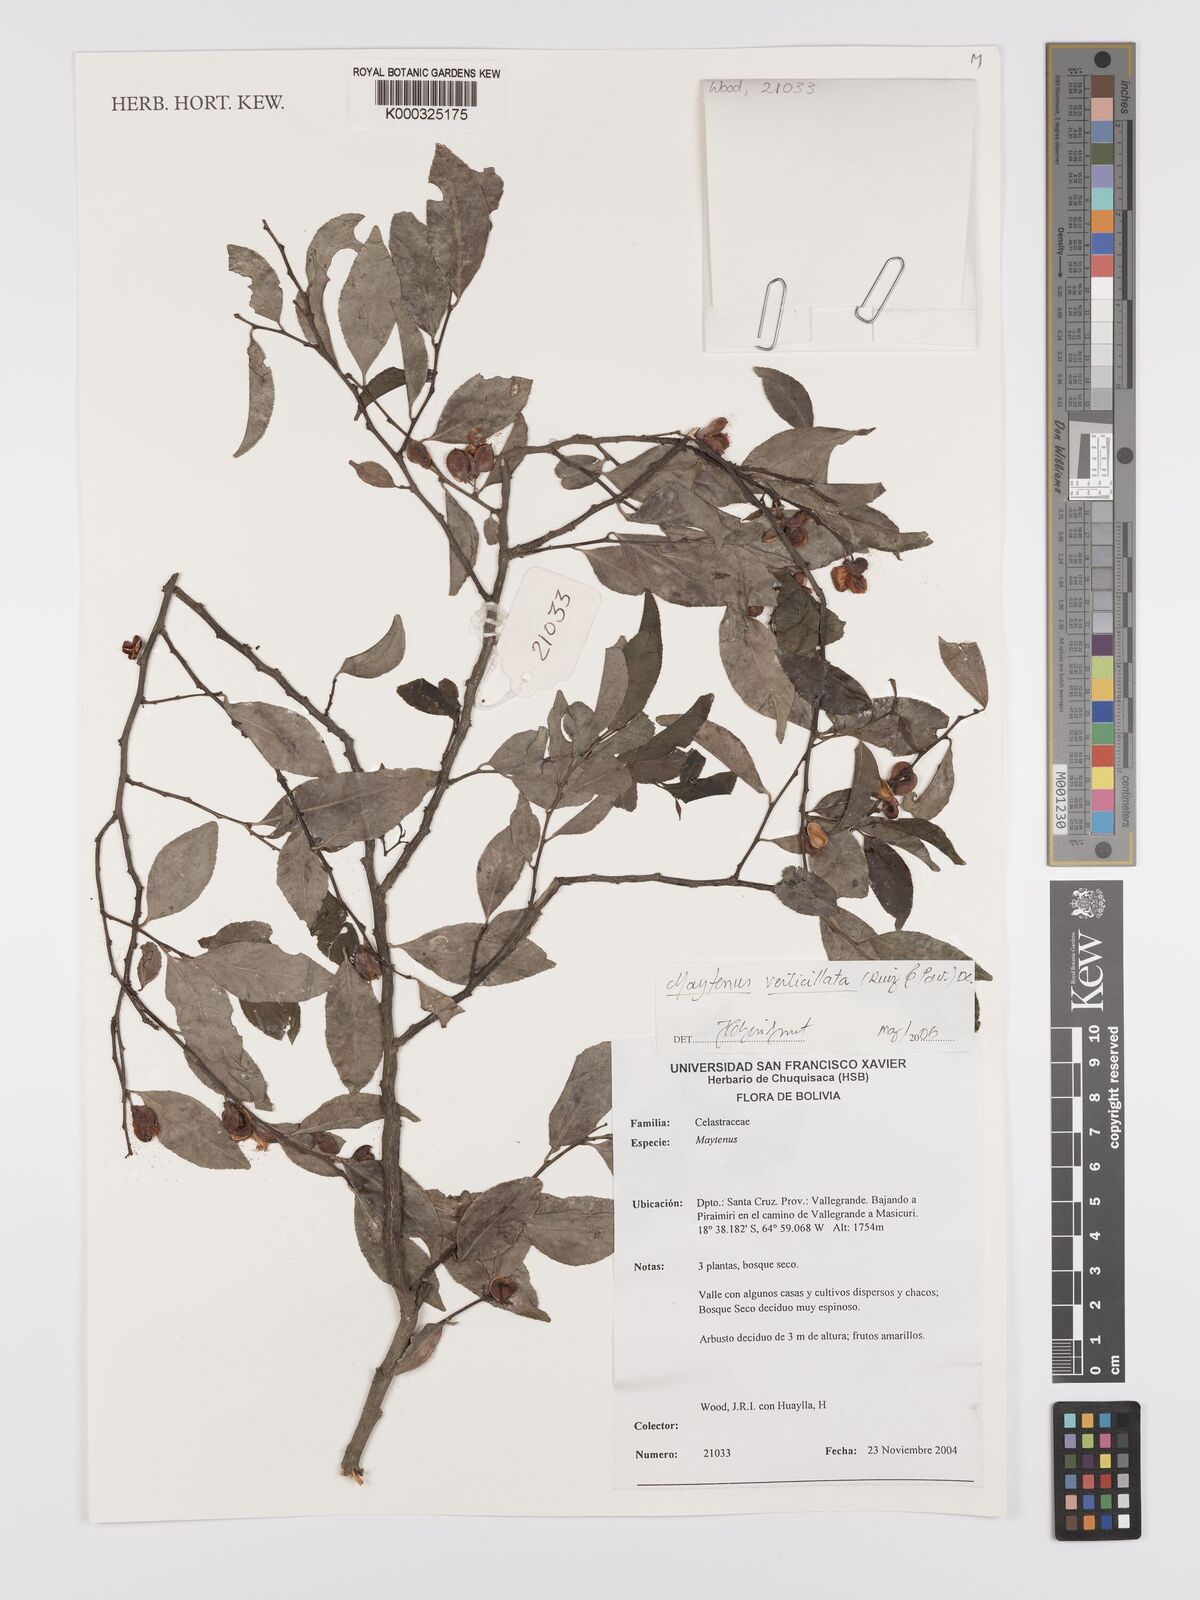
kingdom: Plantae
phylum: Tracheophyta
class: Magnoliopsida
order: Celastrales
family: Celastraceae
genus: Maytenus
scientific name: Maytenus verticillata
